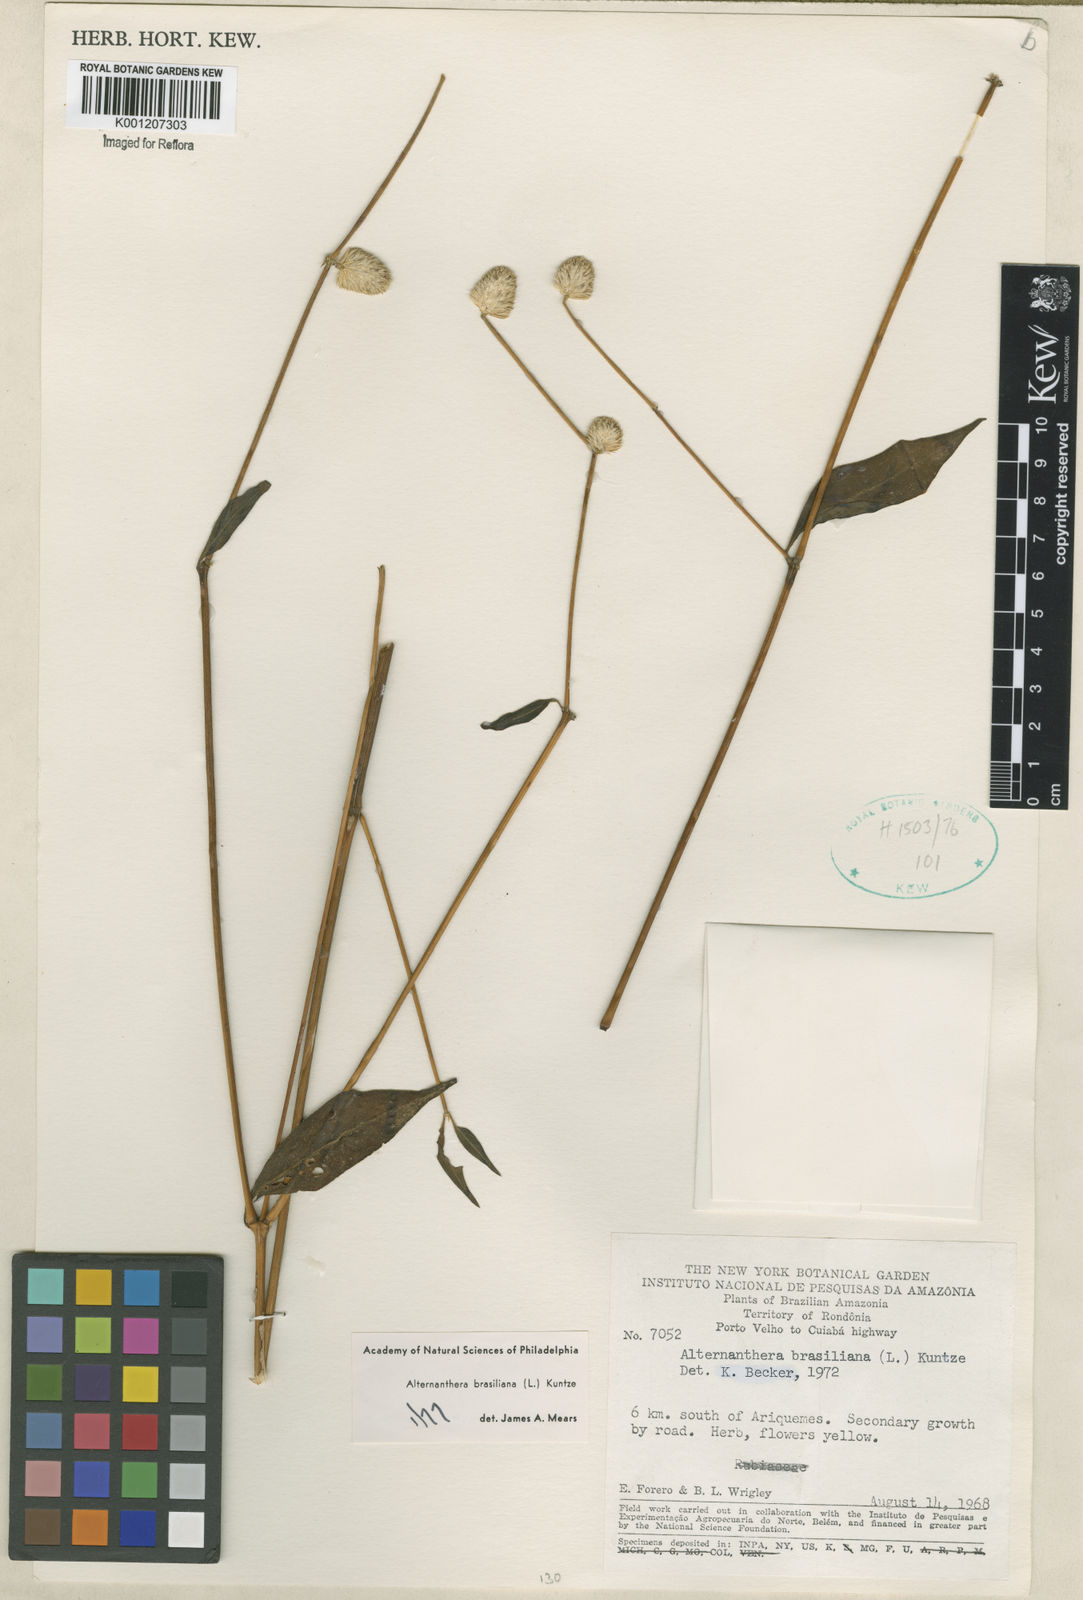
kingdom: Plantae
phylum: Tracheophyta
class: Magnoliopsida
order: Caryophyllales
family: Amaranthaceae
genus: Alternanthera
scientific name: Alternanthera brasiliana
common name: Brazilian joyweed
